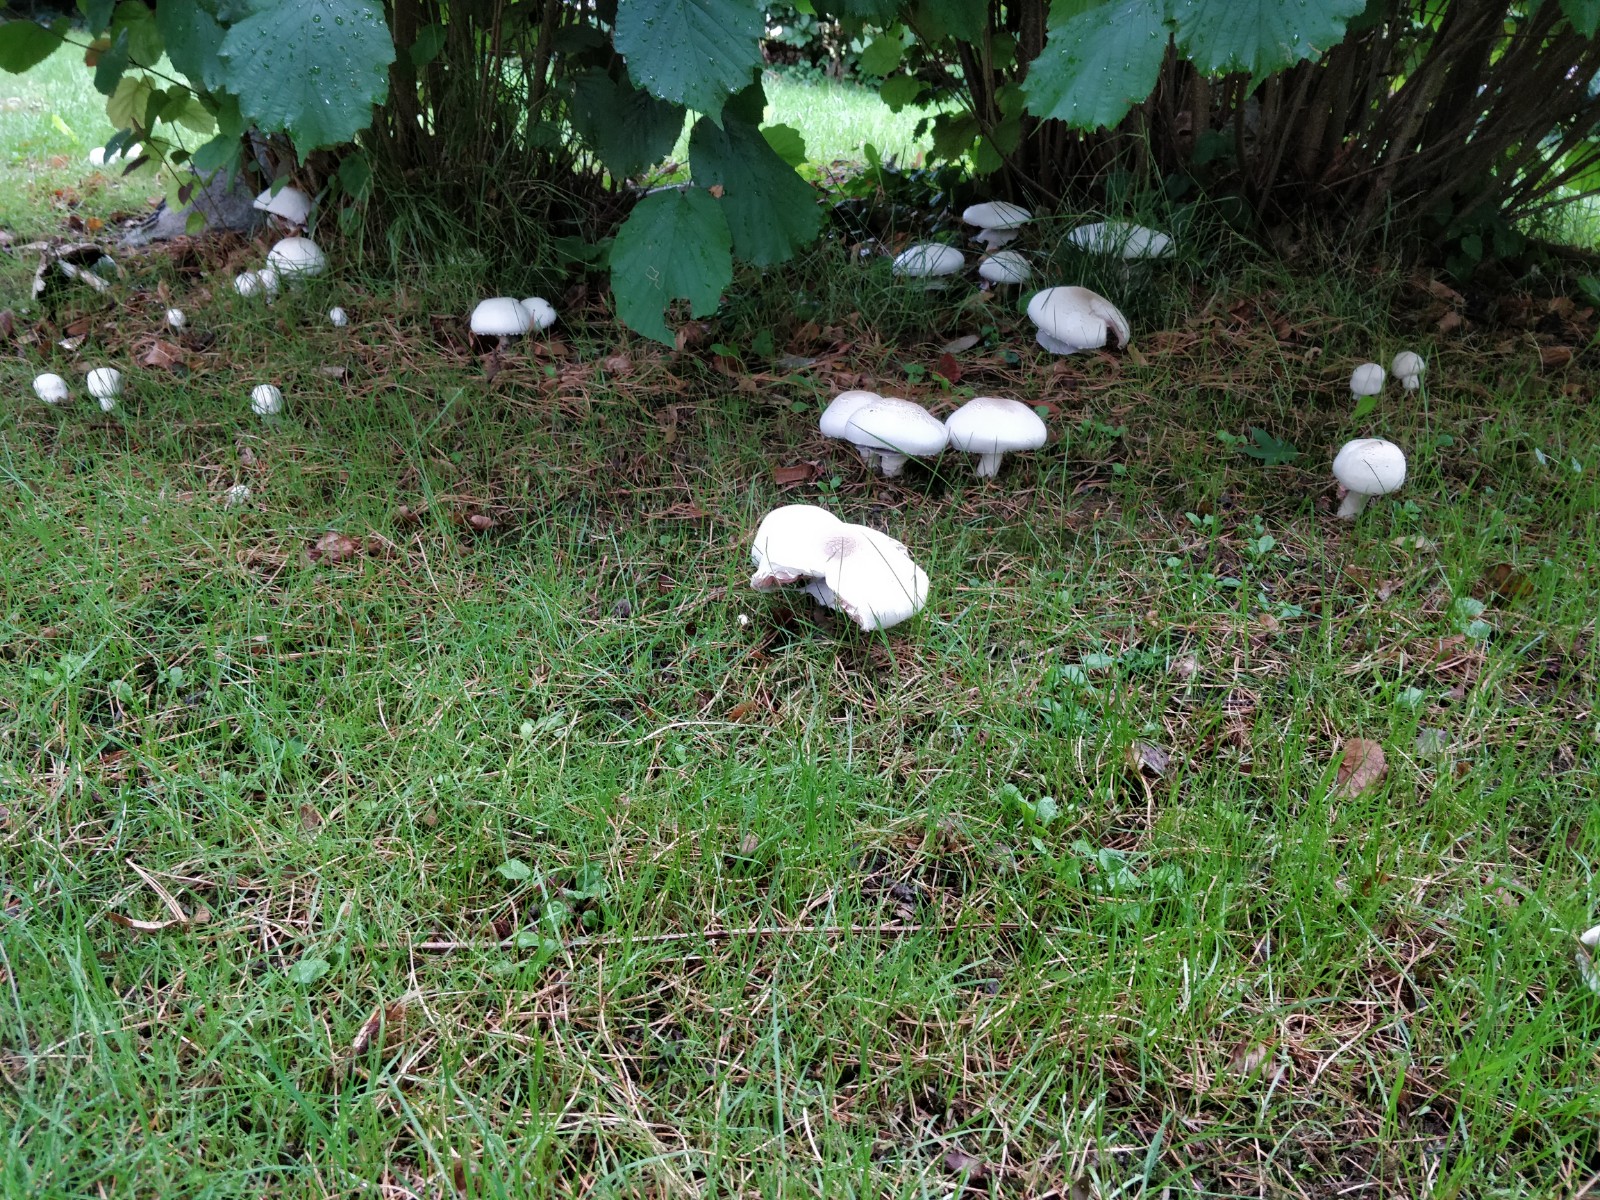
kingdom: Fungi
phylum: Basidiomycota
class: Agaricomycetes
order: Agaricales
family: Agaricaceae
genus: Agaricus
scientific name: Agaricus xanthodermus
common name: karbol-champignon
